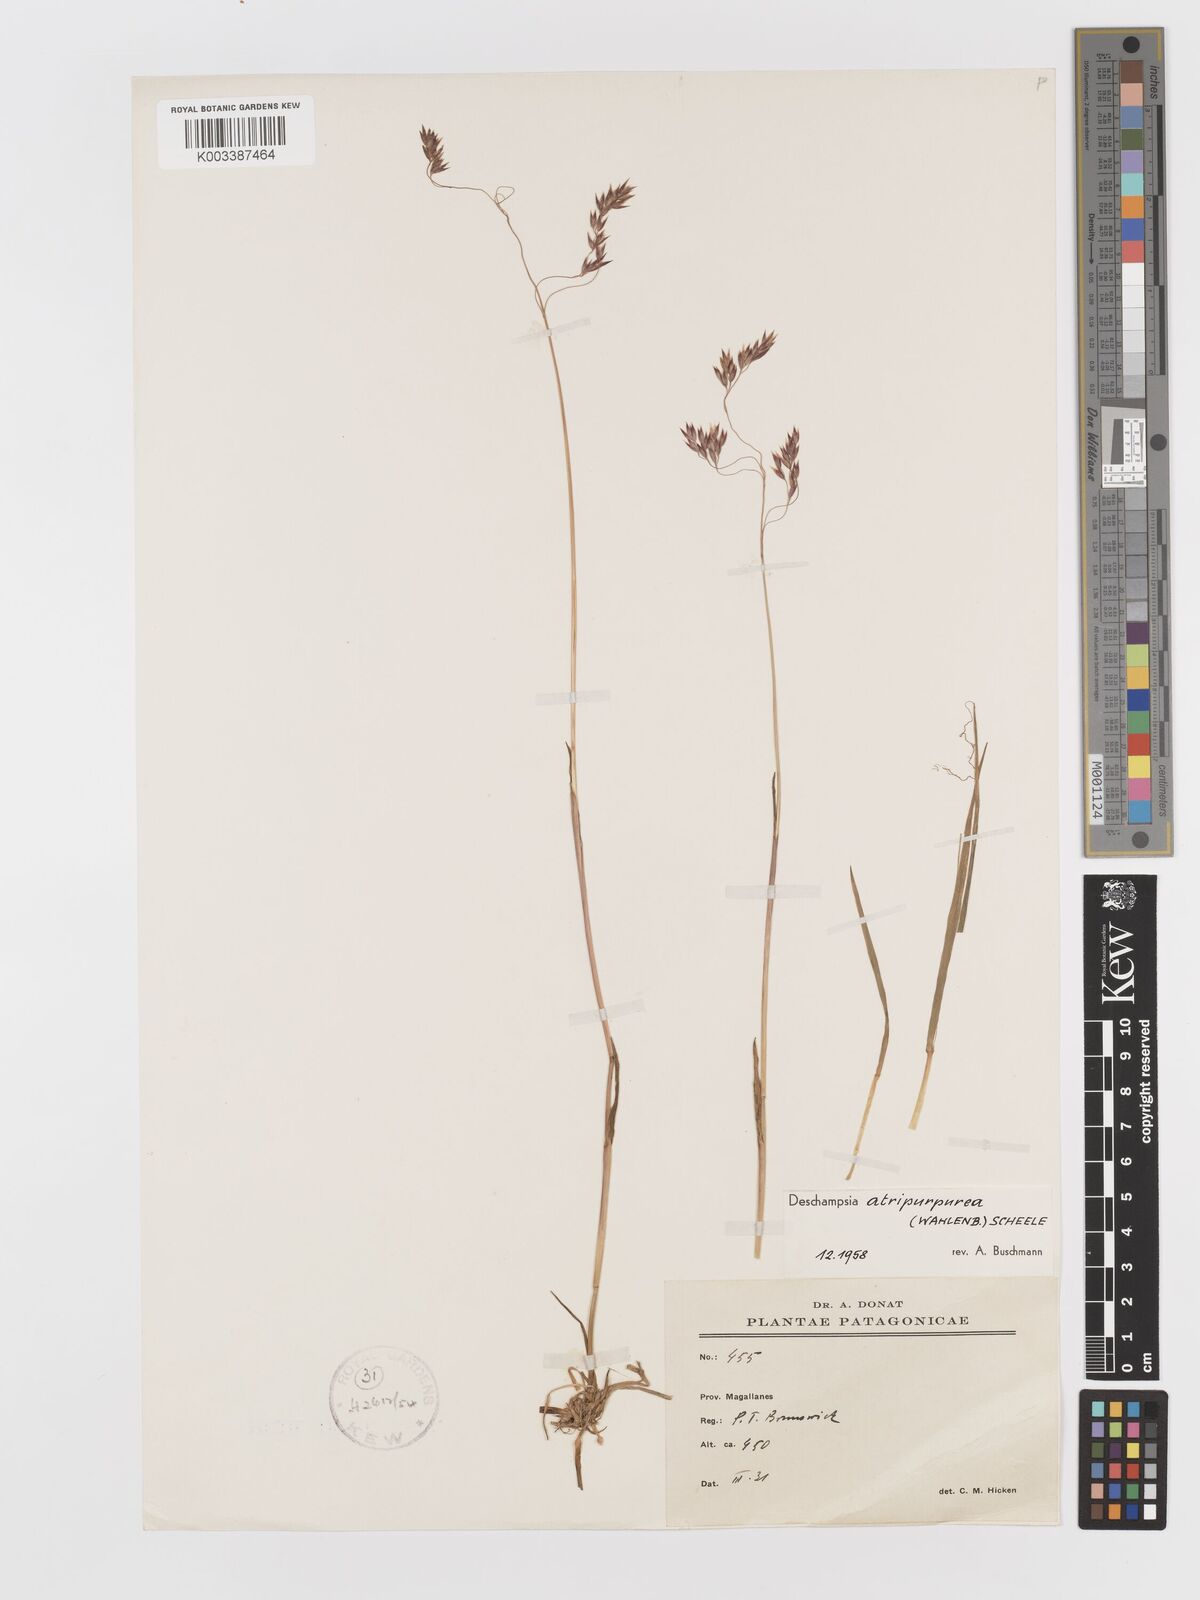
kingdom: Plantae
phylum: Tracheophyta
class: Liliopsida
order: Poales
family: Poaceae
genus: Vahlodea
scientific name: Vahlodea atropurpurea
